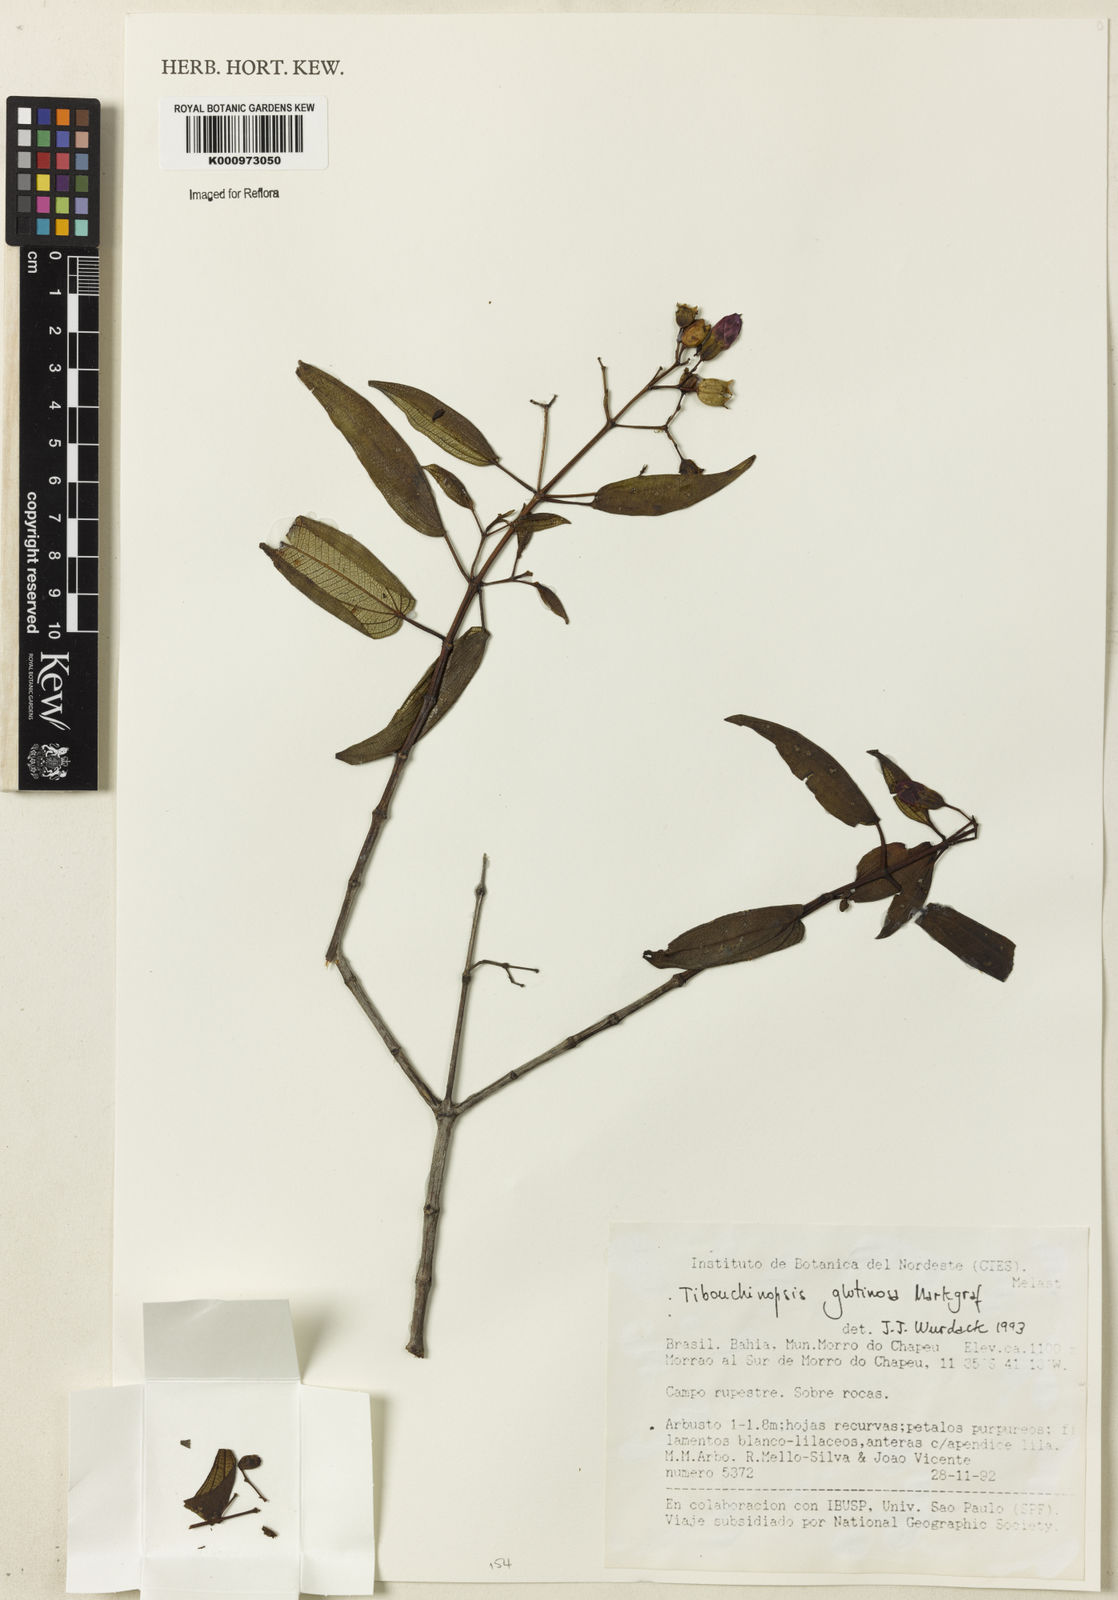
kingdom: Plantae
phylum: Tracheophyta
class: Magnoliopsida
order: Myrtales
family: Melastomataceae
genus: Pleroma
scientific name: Pleroma glutinosum
